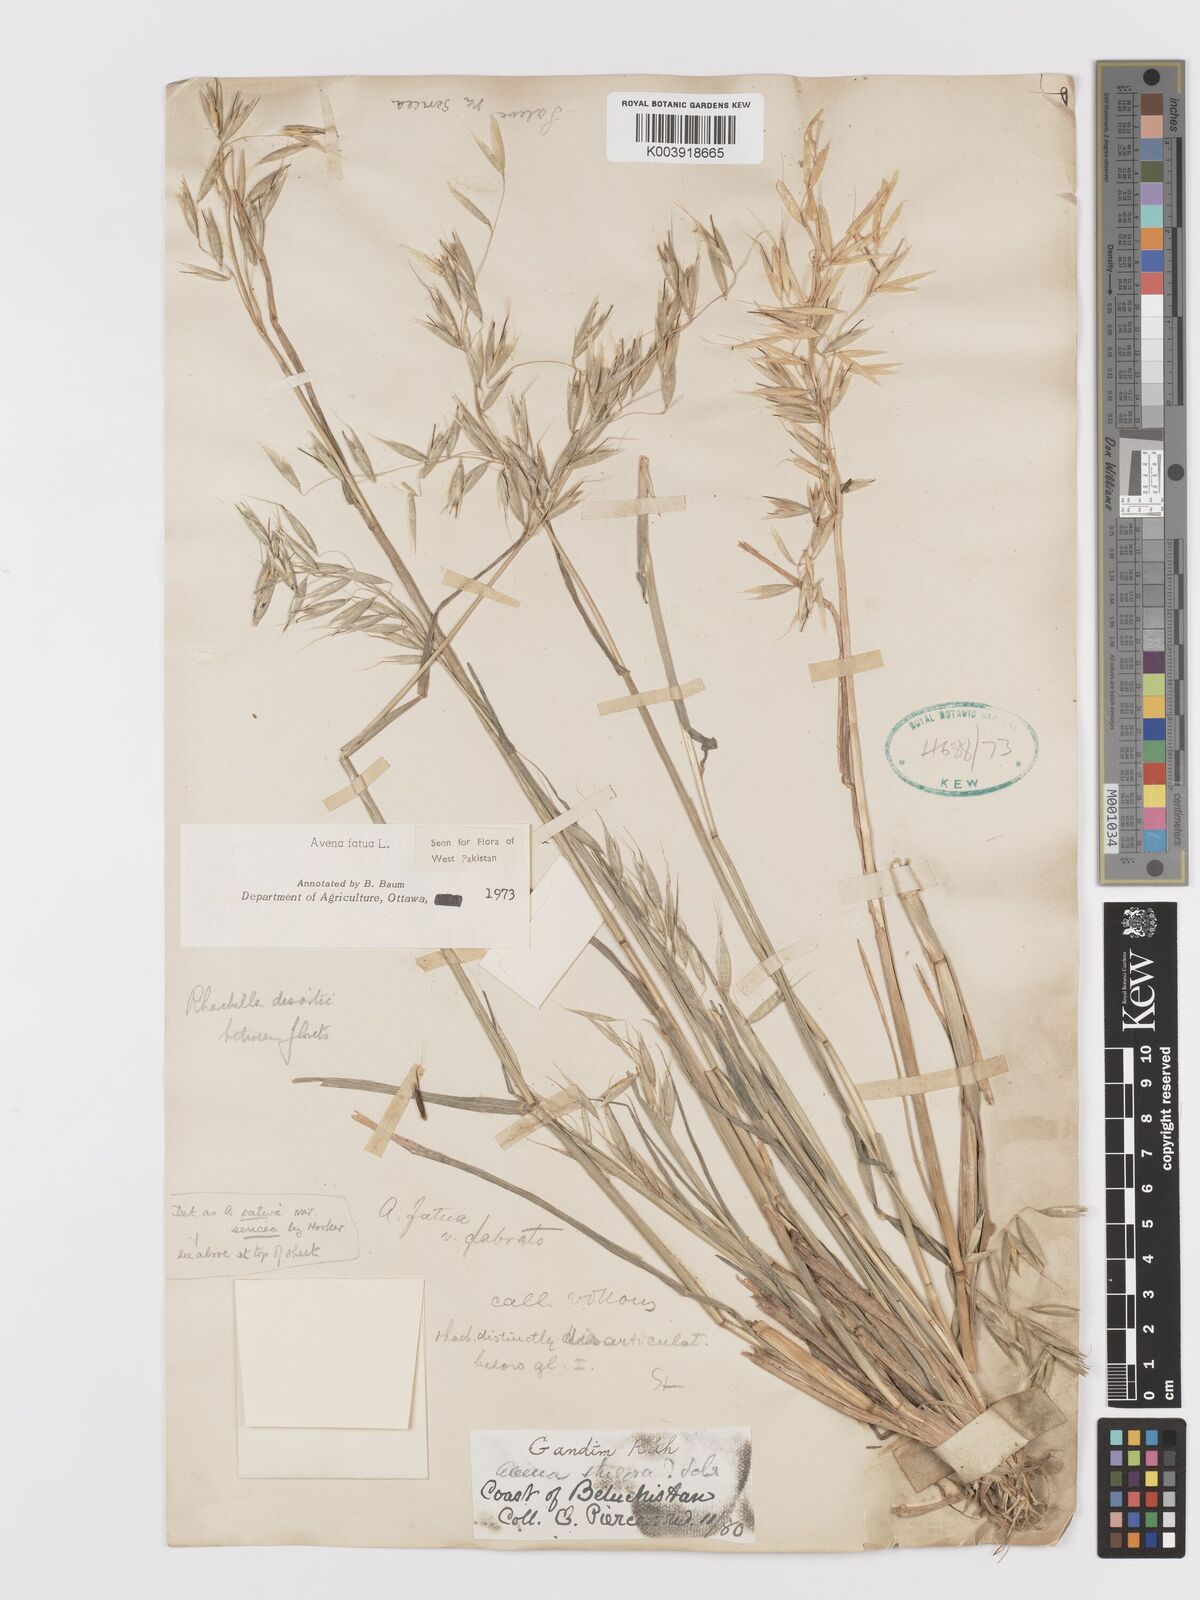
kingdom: Plantae
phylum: Tracheophyta
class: Liliopsida
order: Poales
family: Poaceae
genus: Avena
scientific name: Avena fatua
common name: Wild oat
